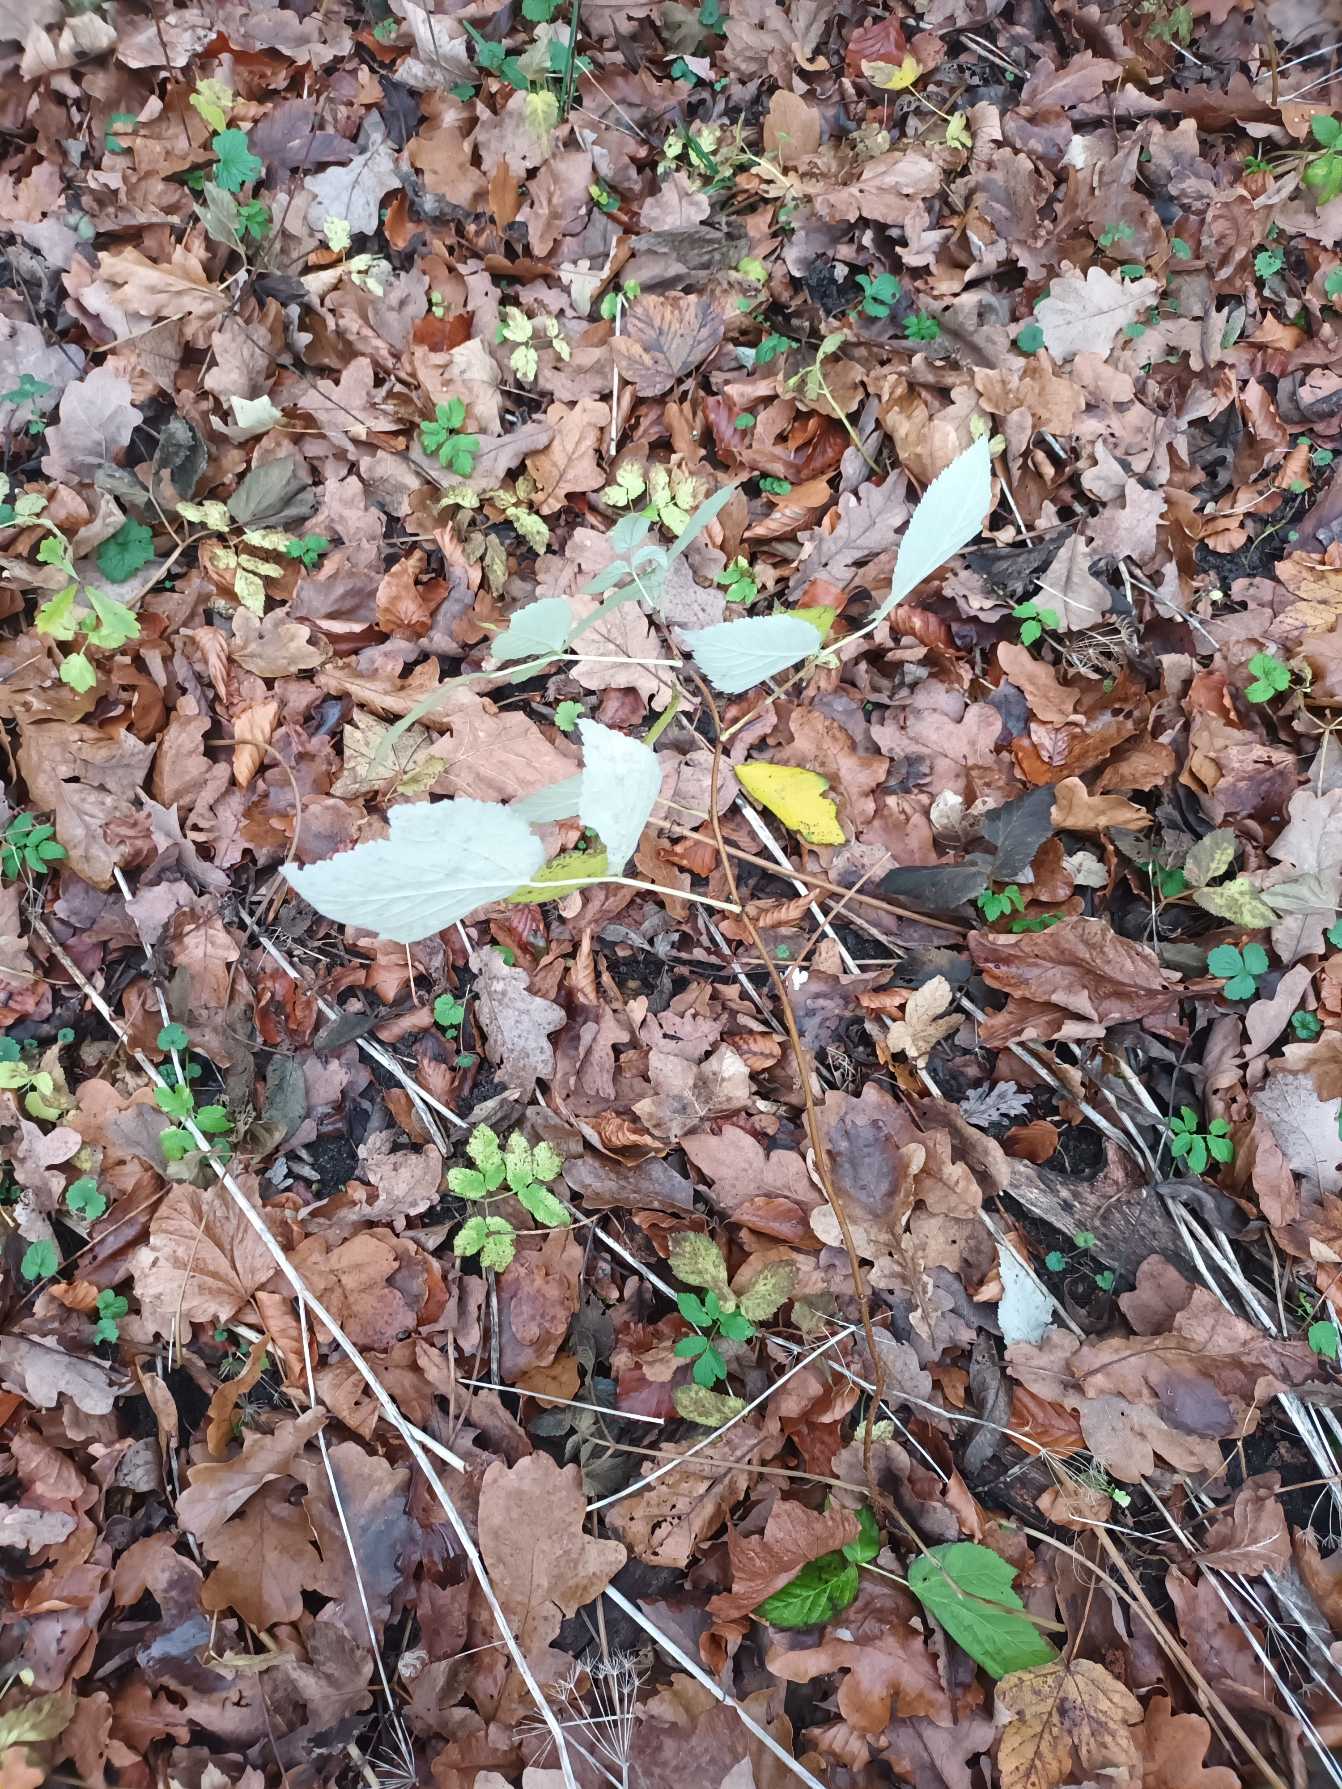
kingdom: Plantae
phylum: Tracheophyta
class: Magnoliopsida
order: Rosales
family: Rosaceae
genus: Rubus
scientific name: Rubus idaeus
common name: Hindbær
